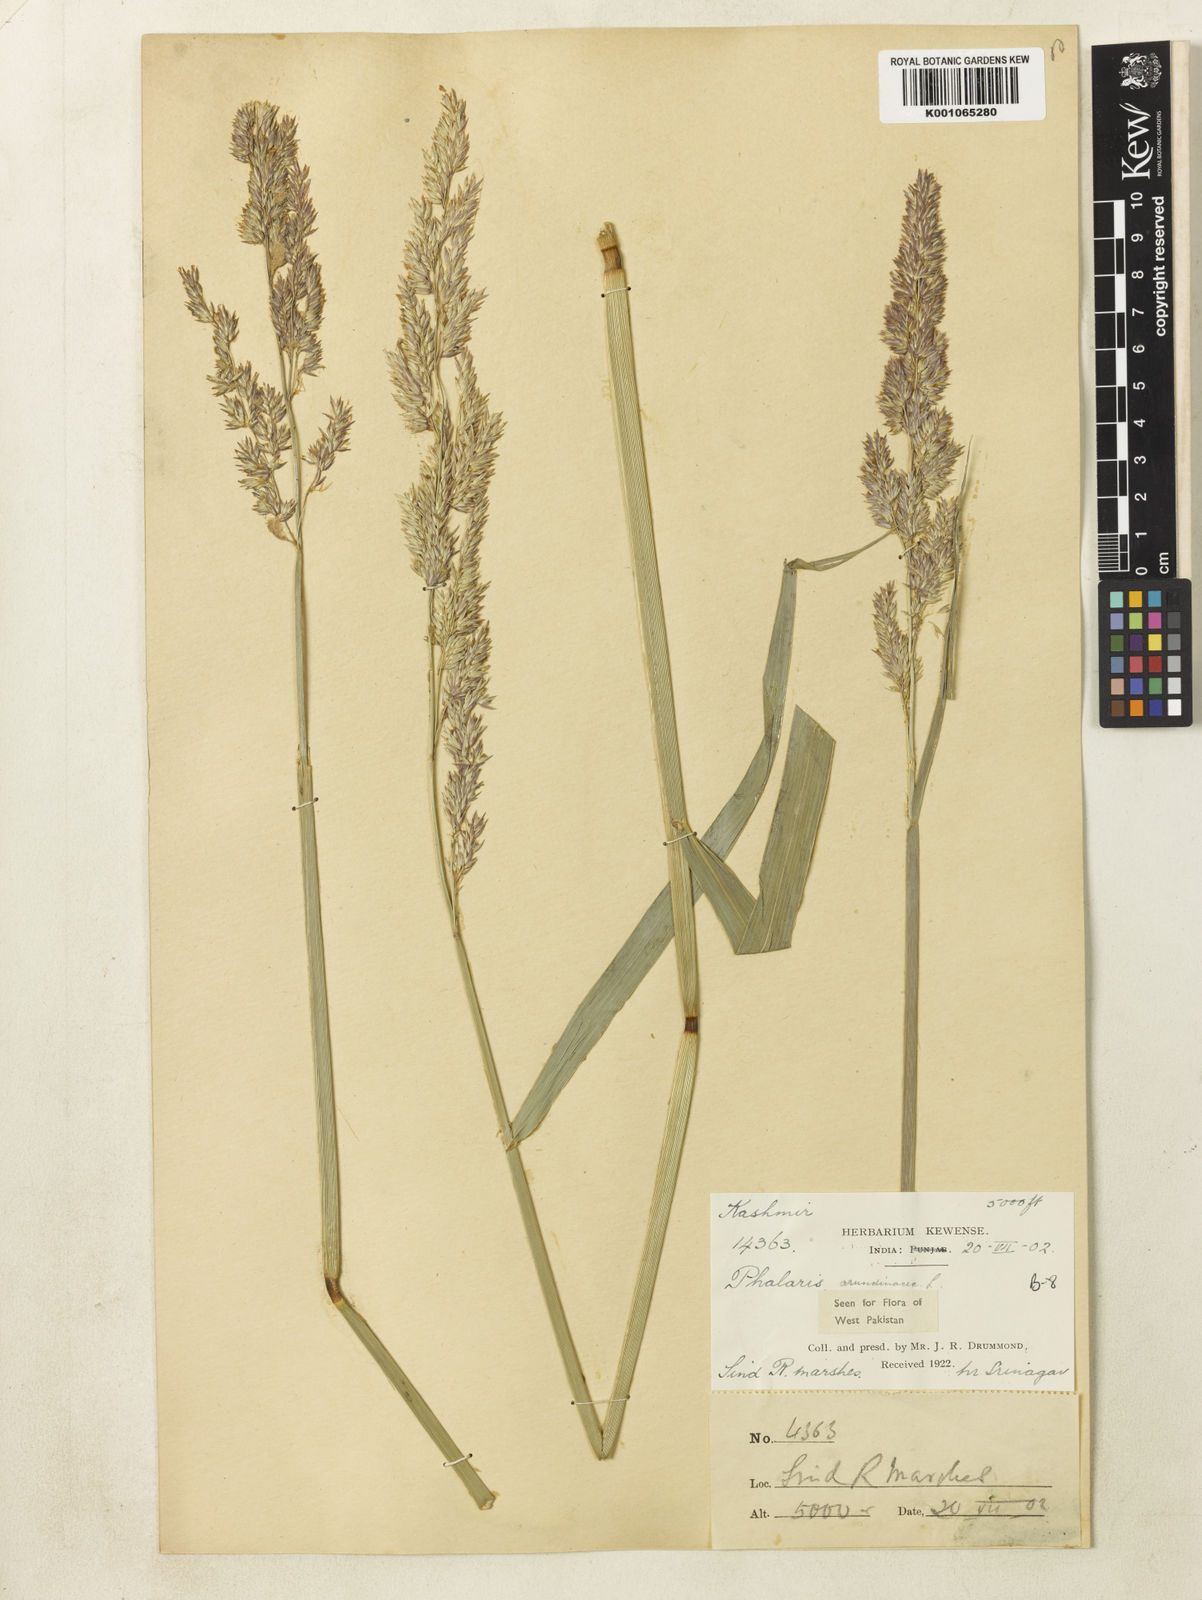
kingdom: Plantae
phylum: Tracheophyta
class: Liliopsida
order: Poales
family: Poaceae
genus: Phalaris
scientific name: Phalaris arundinacea
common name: Reed canary-grass
